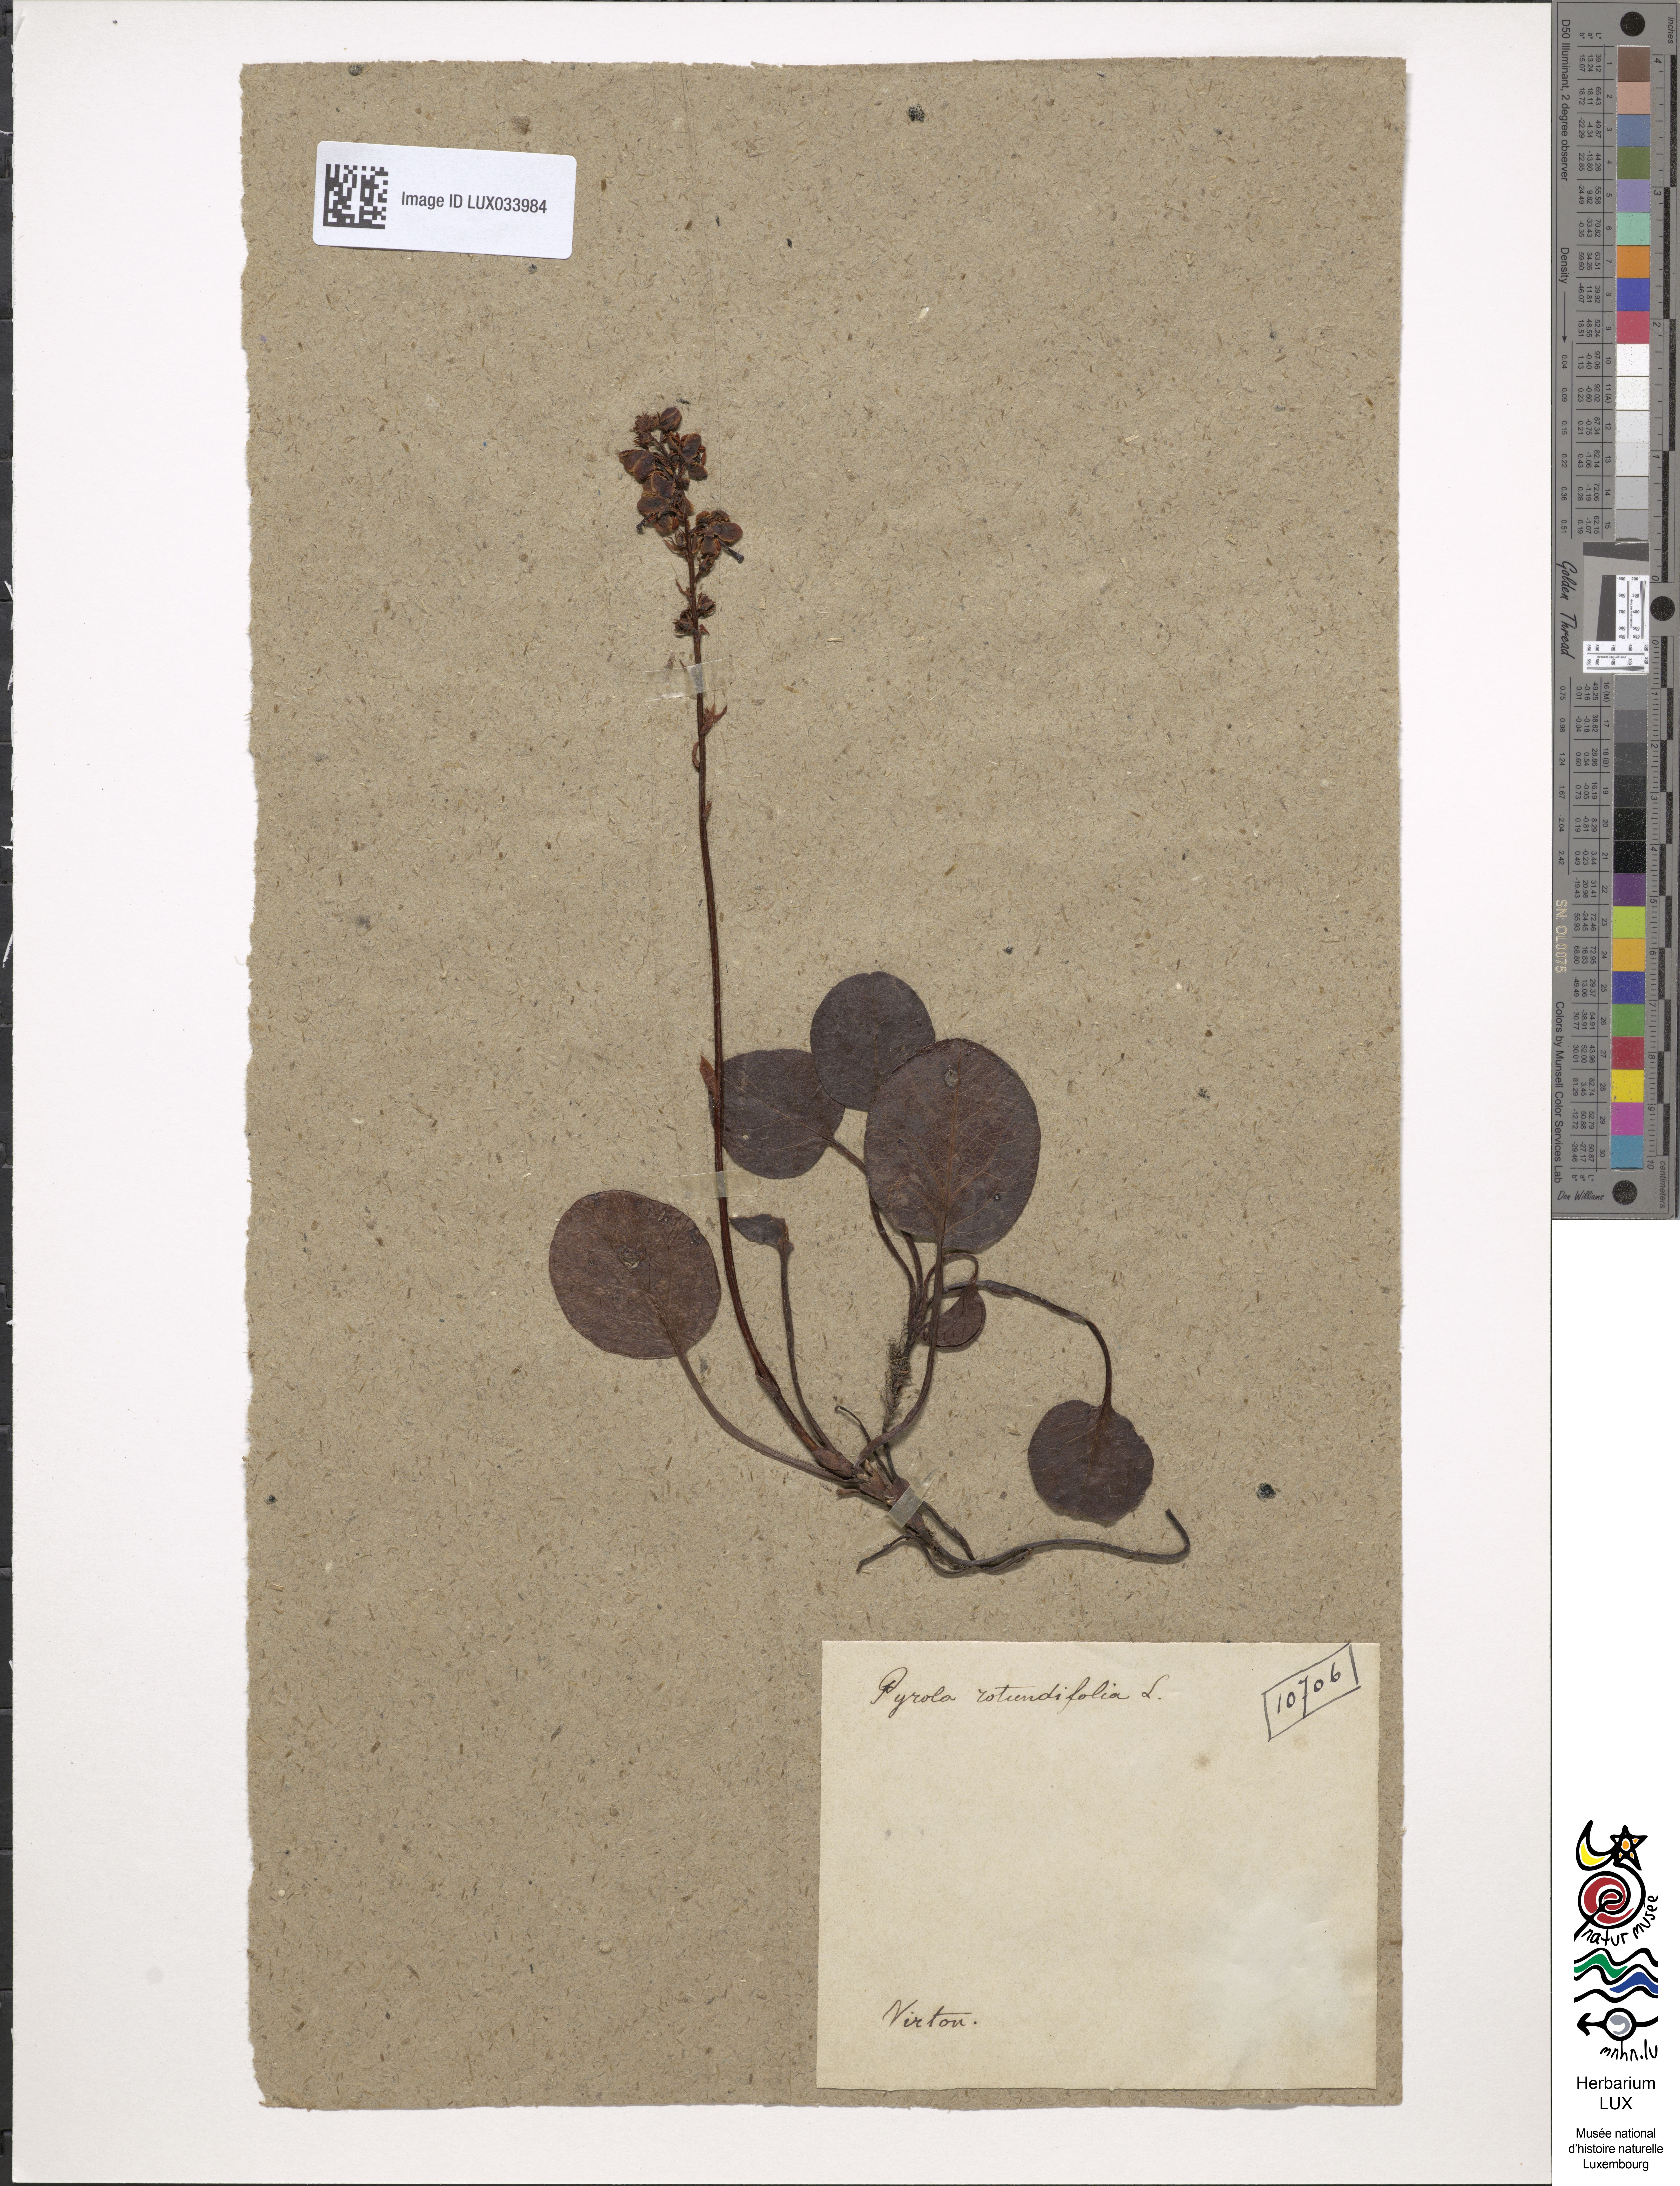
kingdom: Plantae
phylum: Tracheophyta
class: Magnoliopsida
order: Ericales
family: Ericaceae
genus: Pyrola
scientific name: Pyrola rotundifolia
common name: Round-leaved wintergreen
